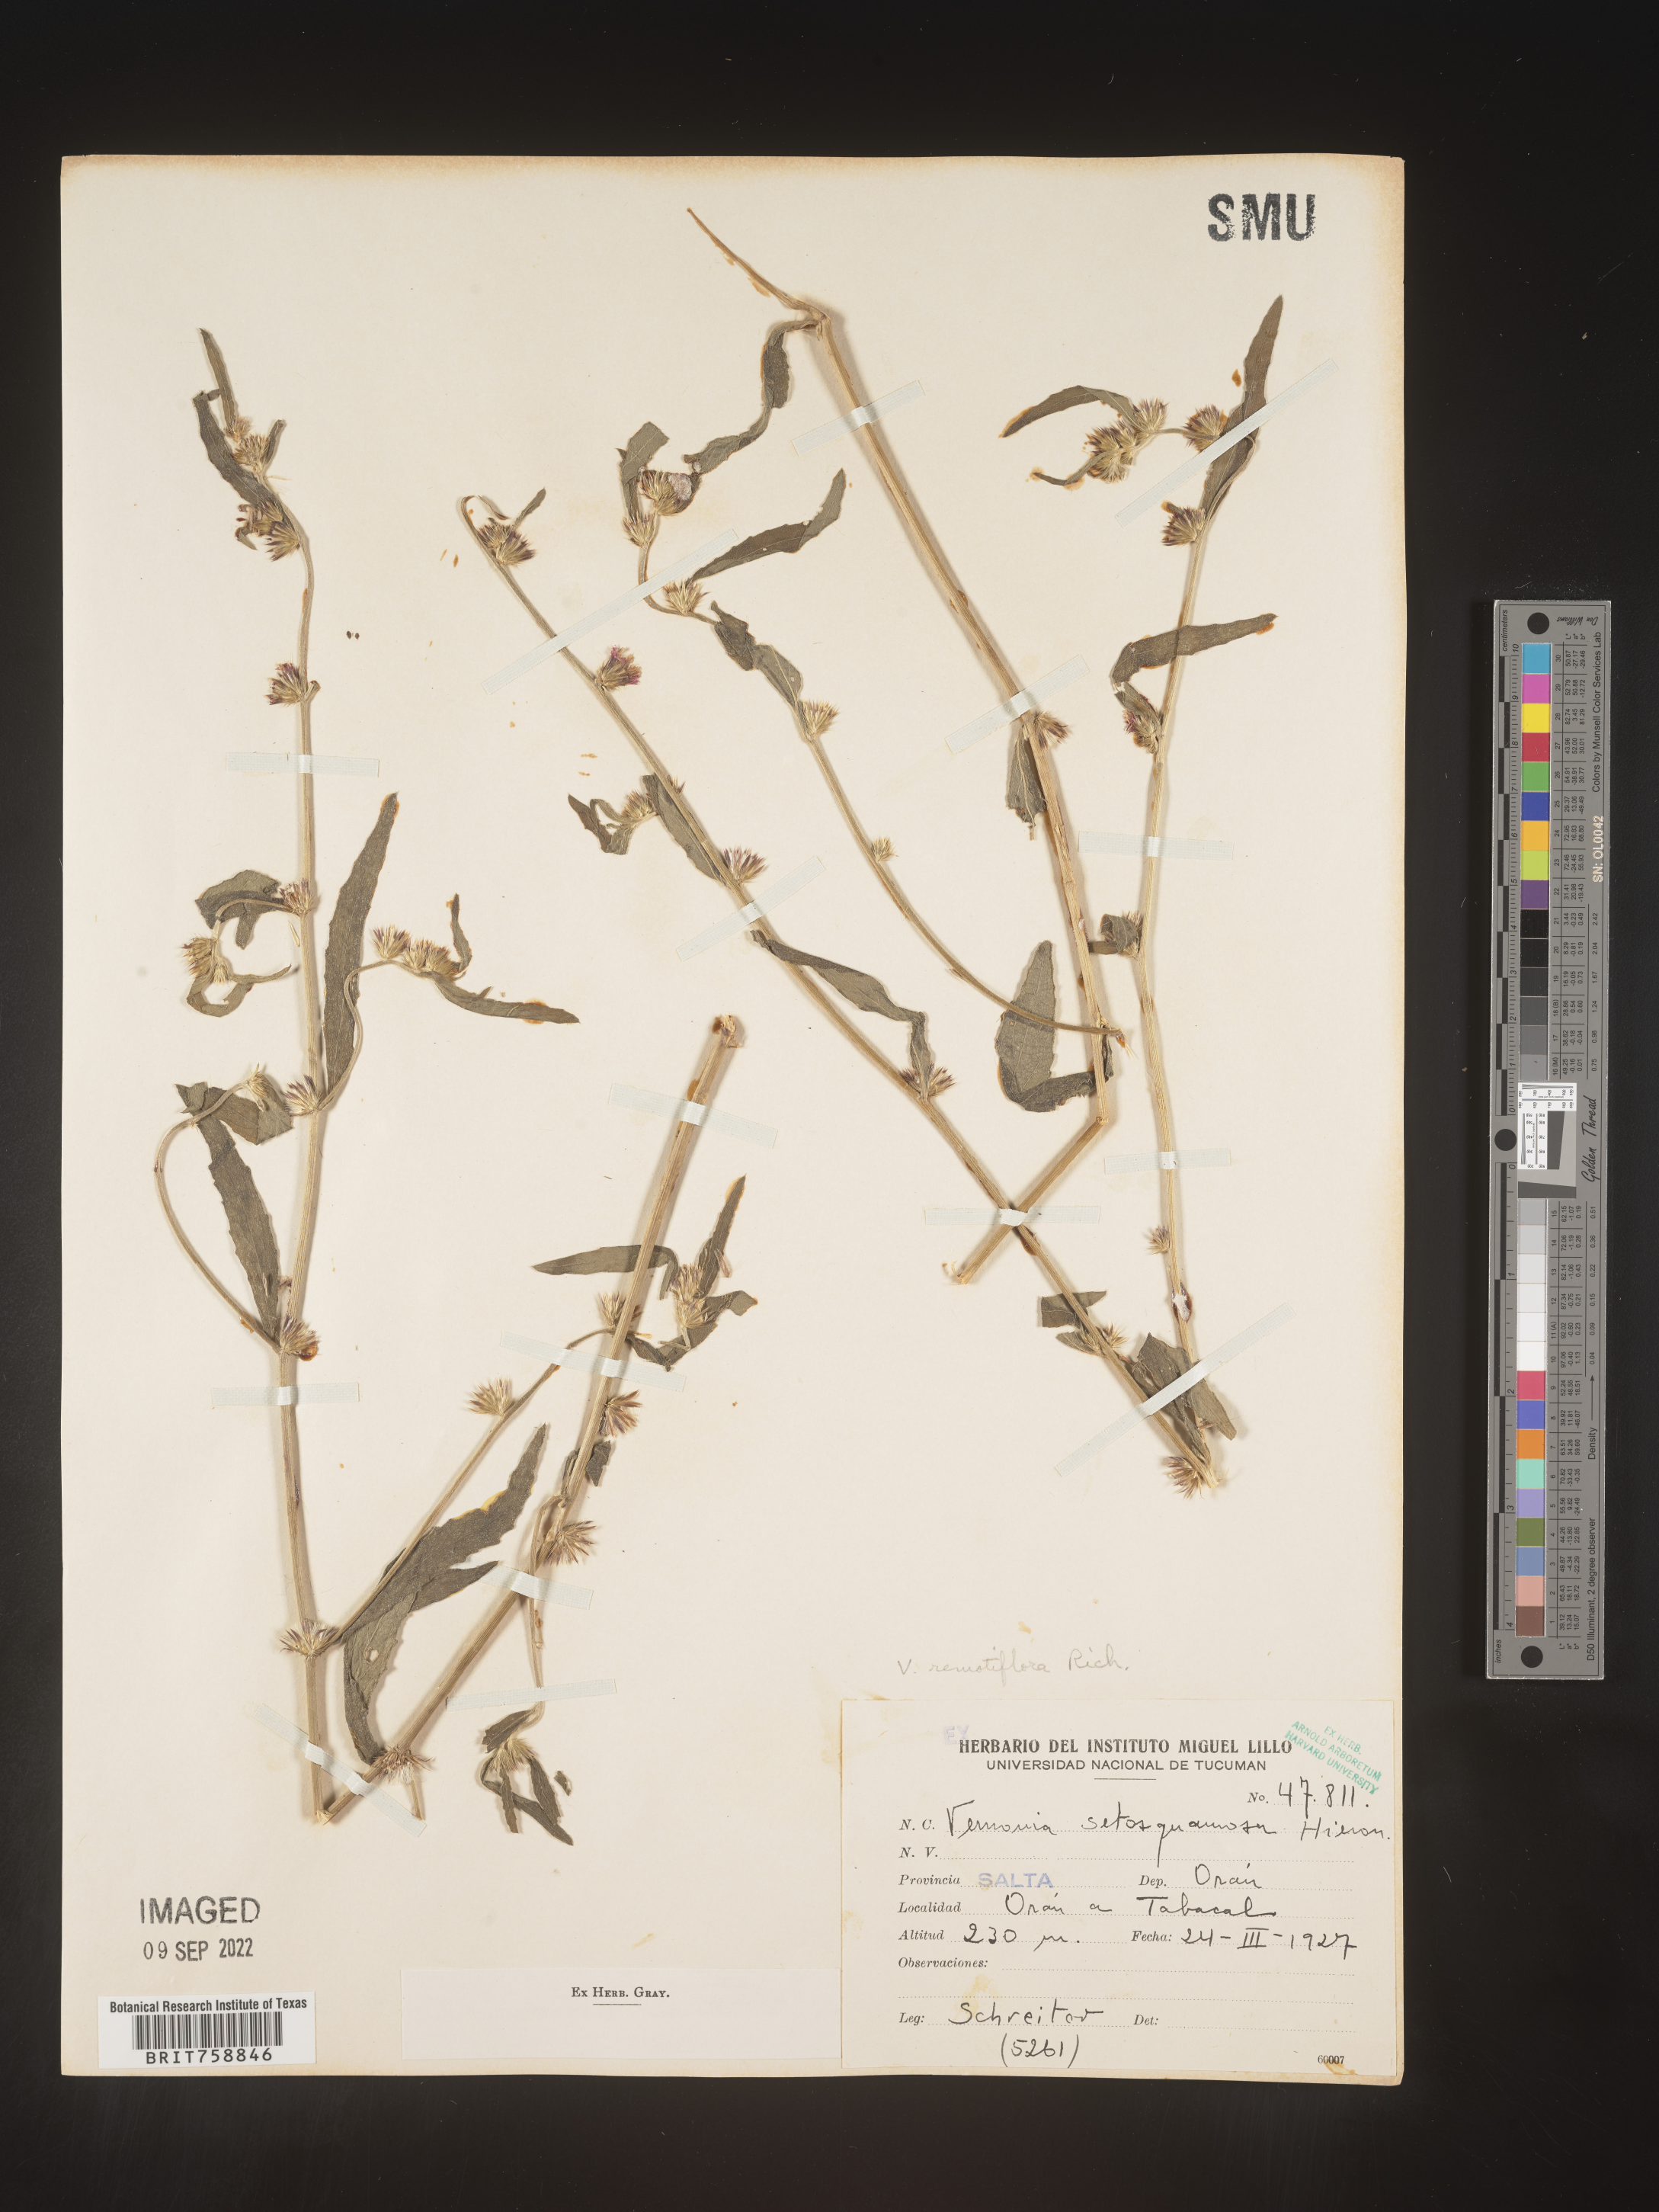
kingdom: Plantae
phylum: Tracheophyta
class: Magnoliopsida
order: Asterales
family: Asteraceae
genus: Vernonia
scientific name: Vernonia
